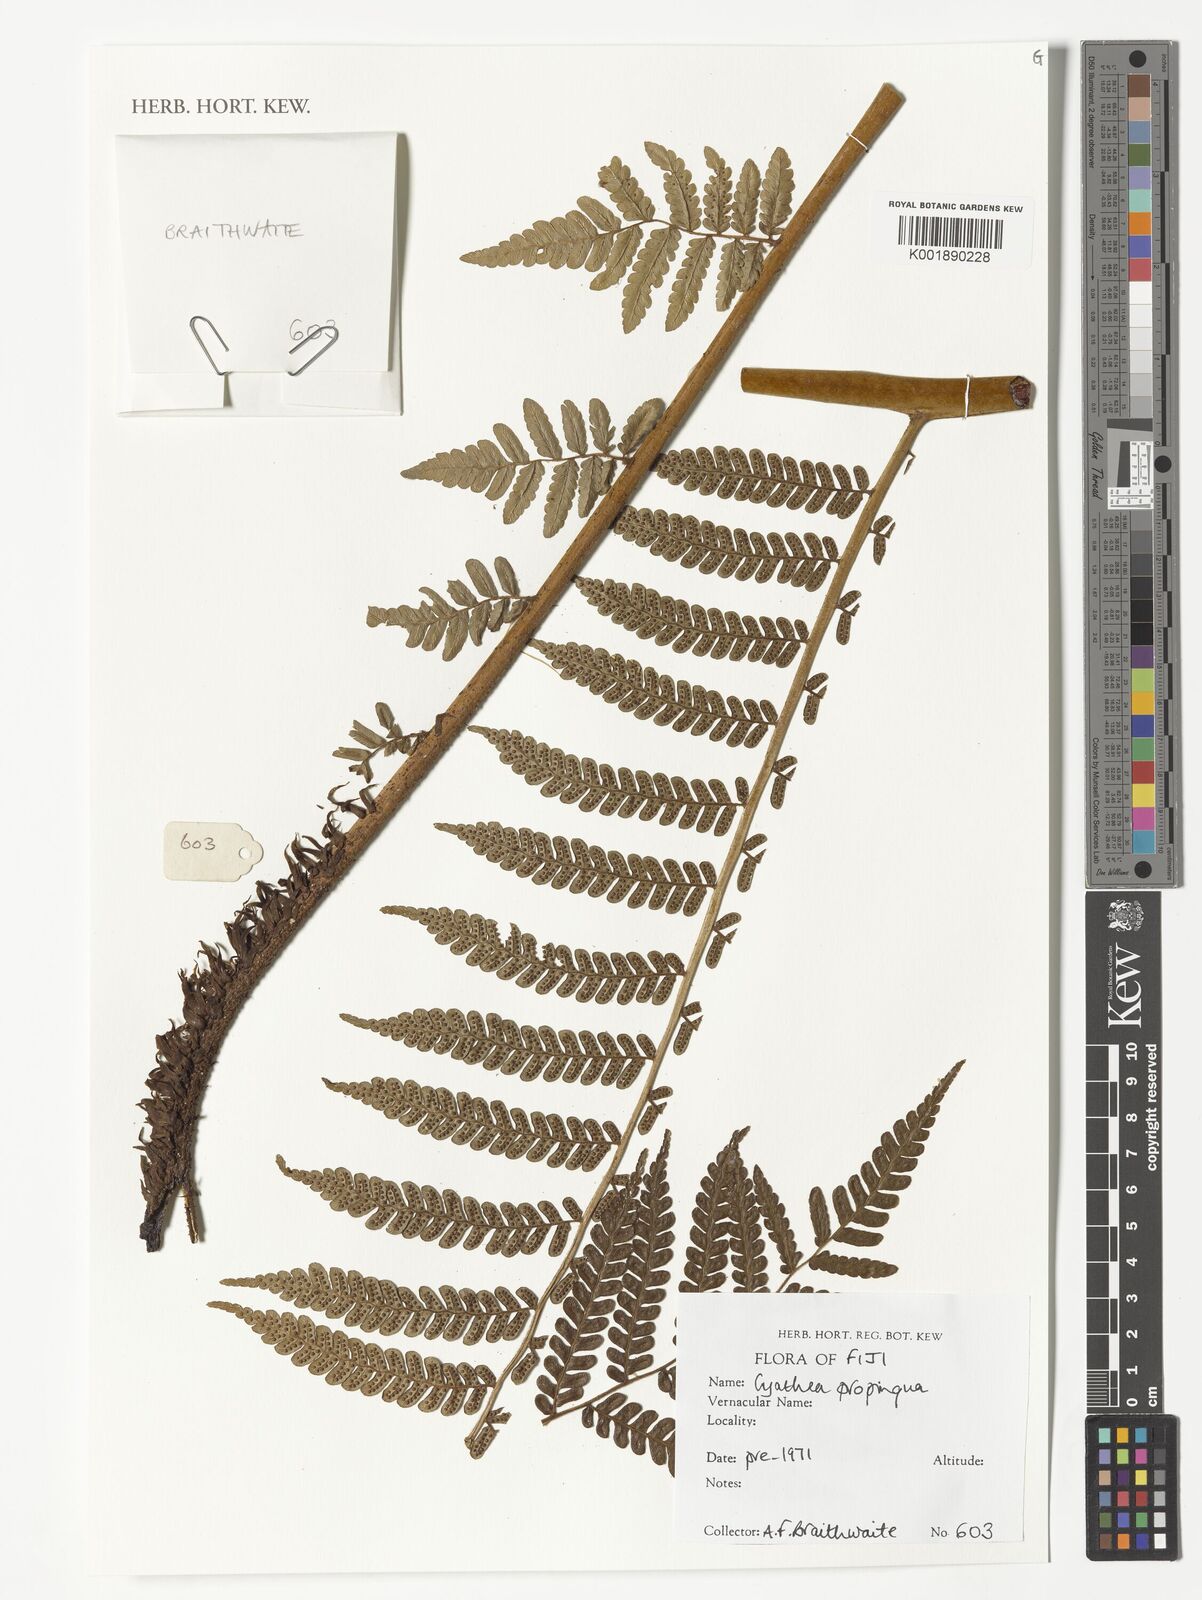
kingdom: Plantae
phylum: Tracheophyta
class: Polypodiopsida
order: Cyatheales
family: Cyatheaceae
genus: Sphaeropteris
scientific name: Sphaeropteris propinqua
